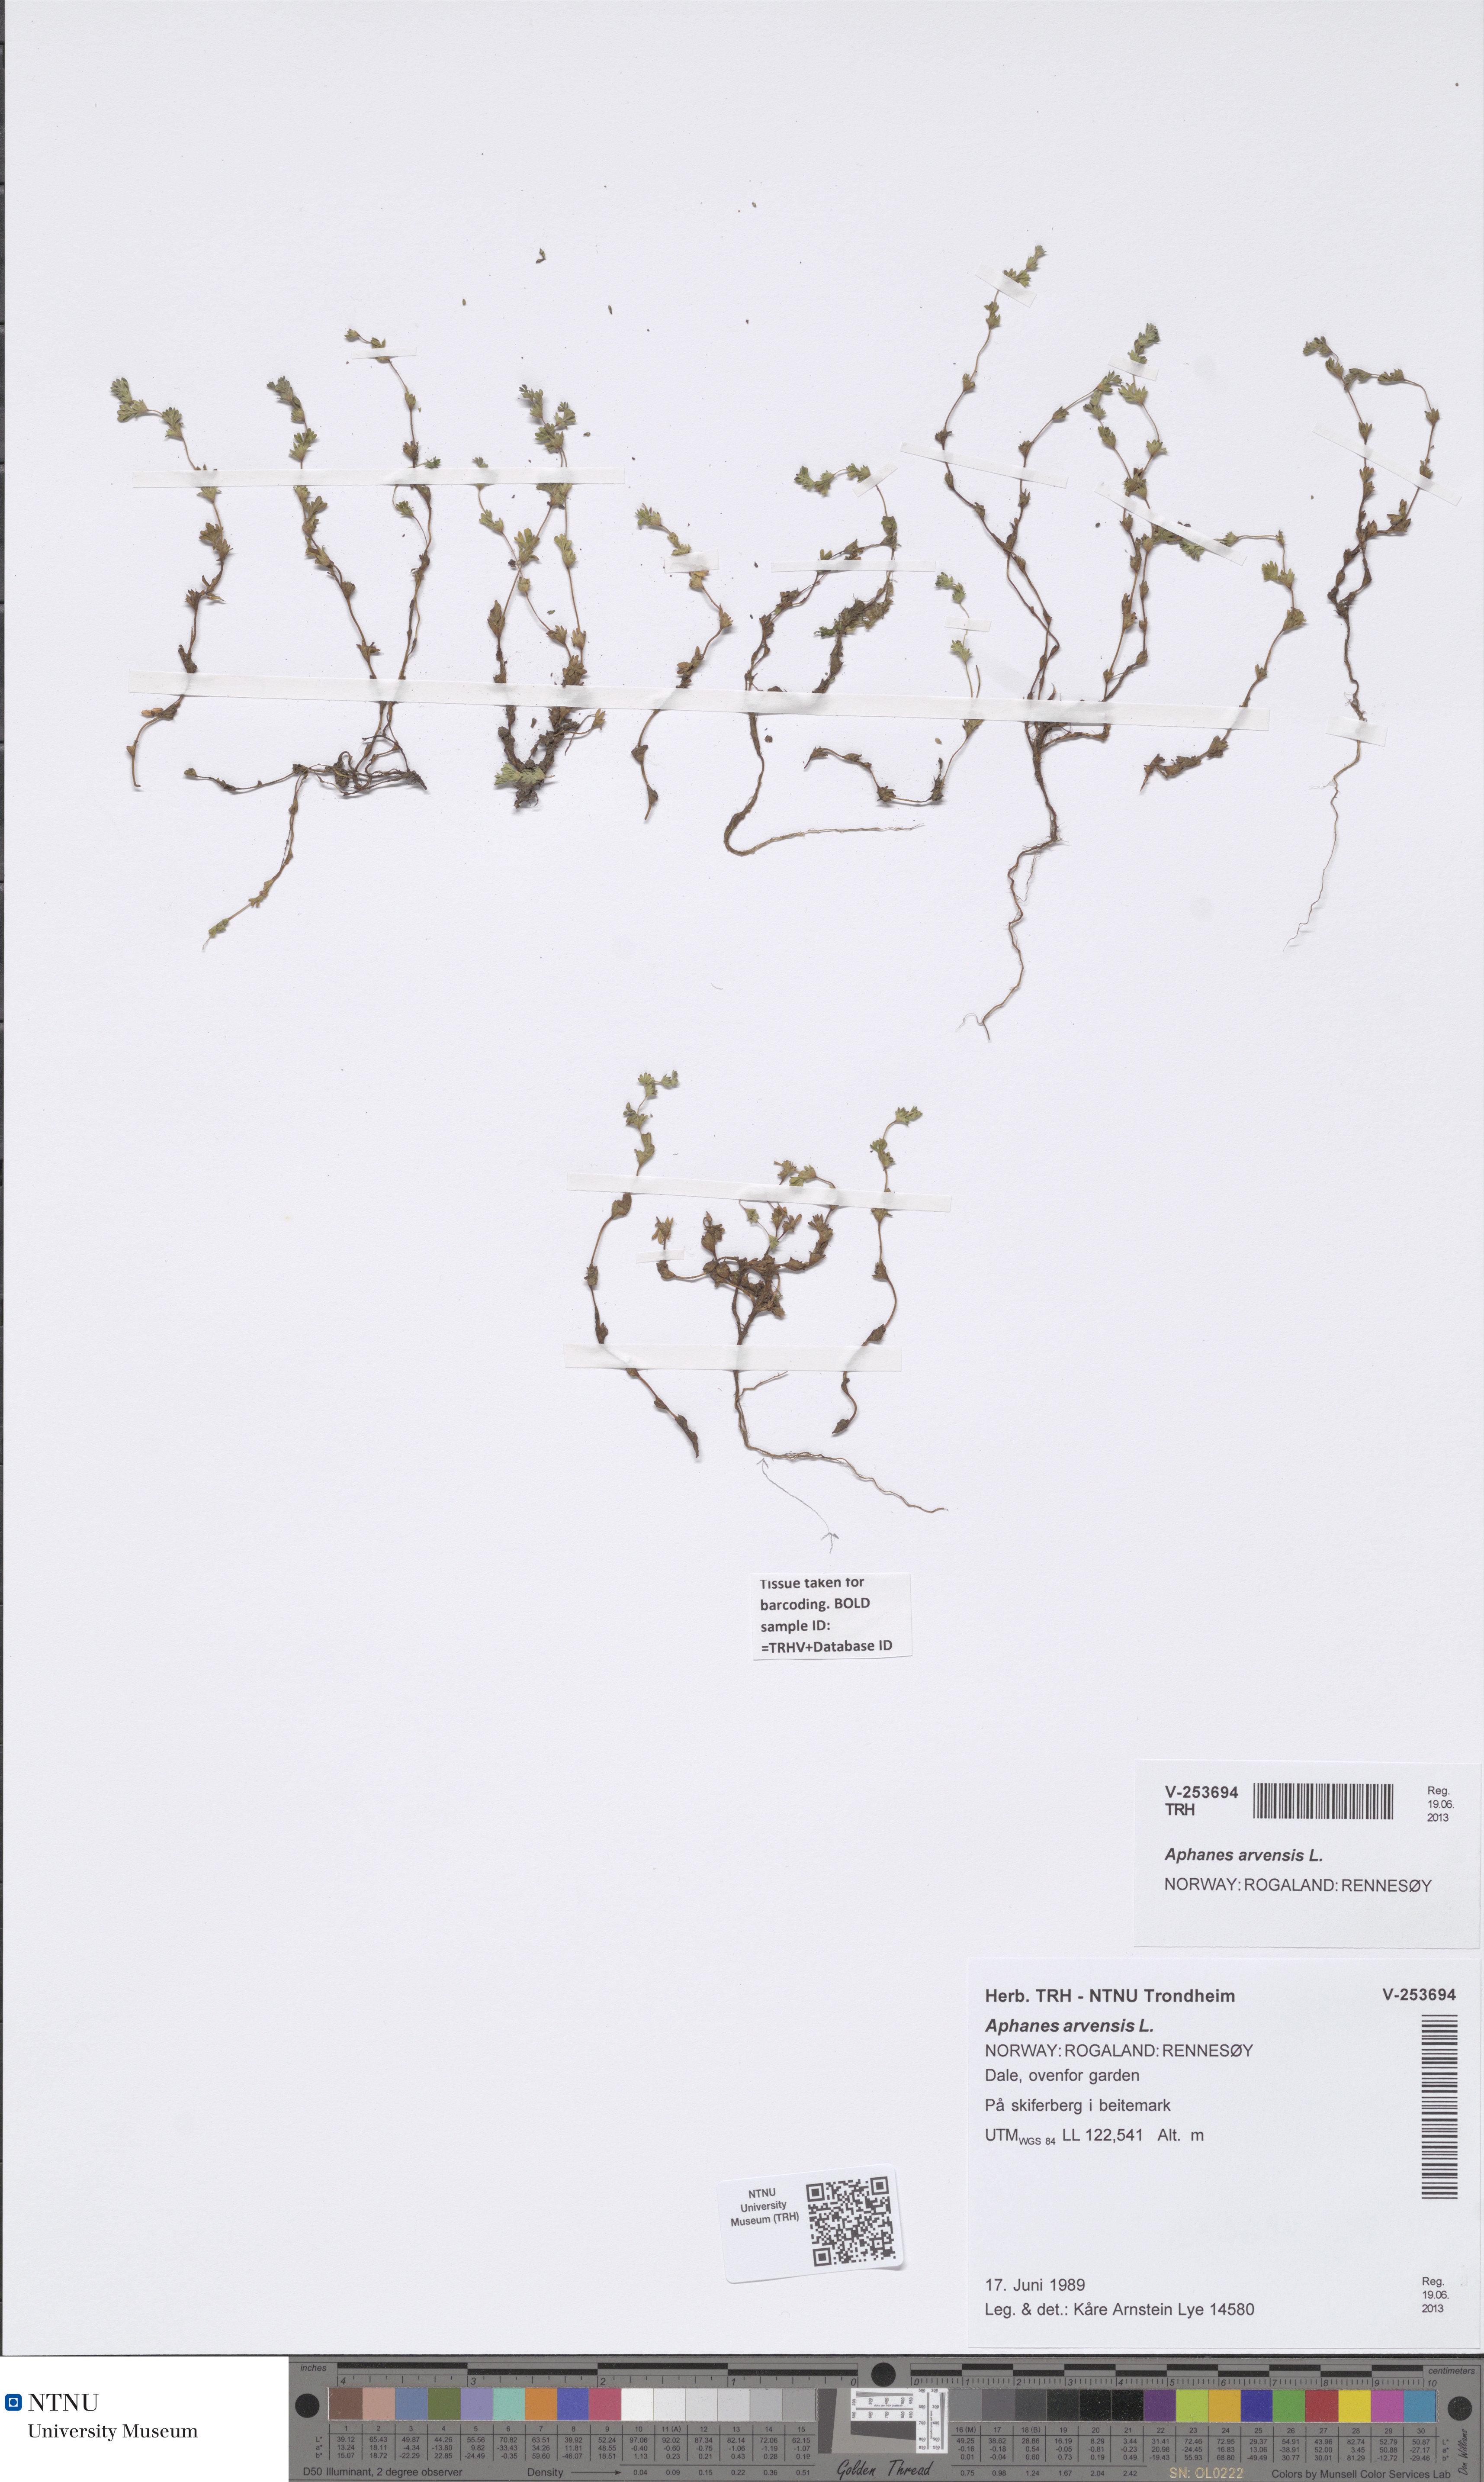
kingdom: Plantae
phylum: Tracheophyta
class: Magnoliopsida
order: Rosales
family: Rosaceae
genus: Aphanes
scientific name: Aphanes arvensis
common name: Parsley-piert
